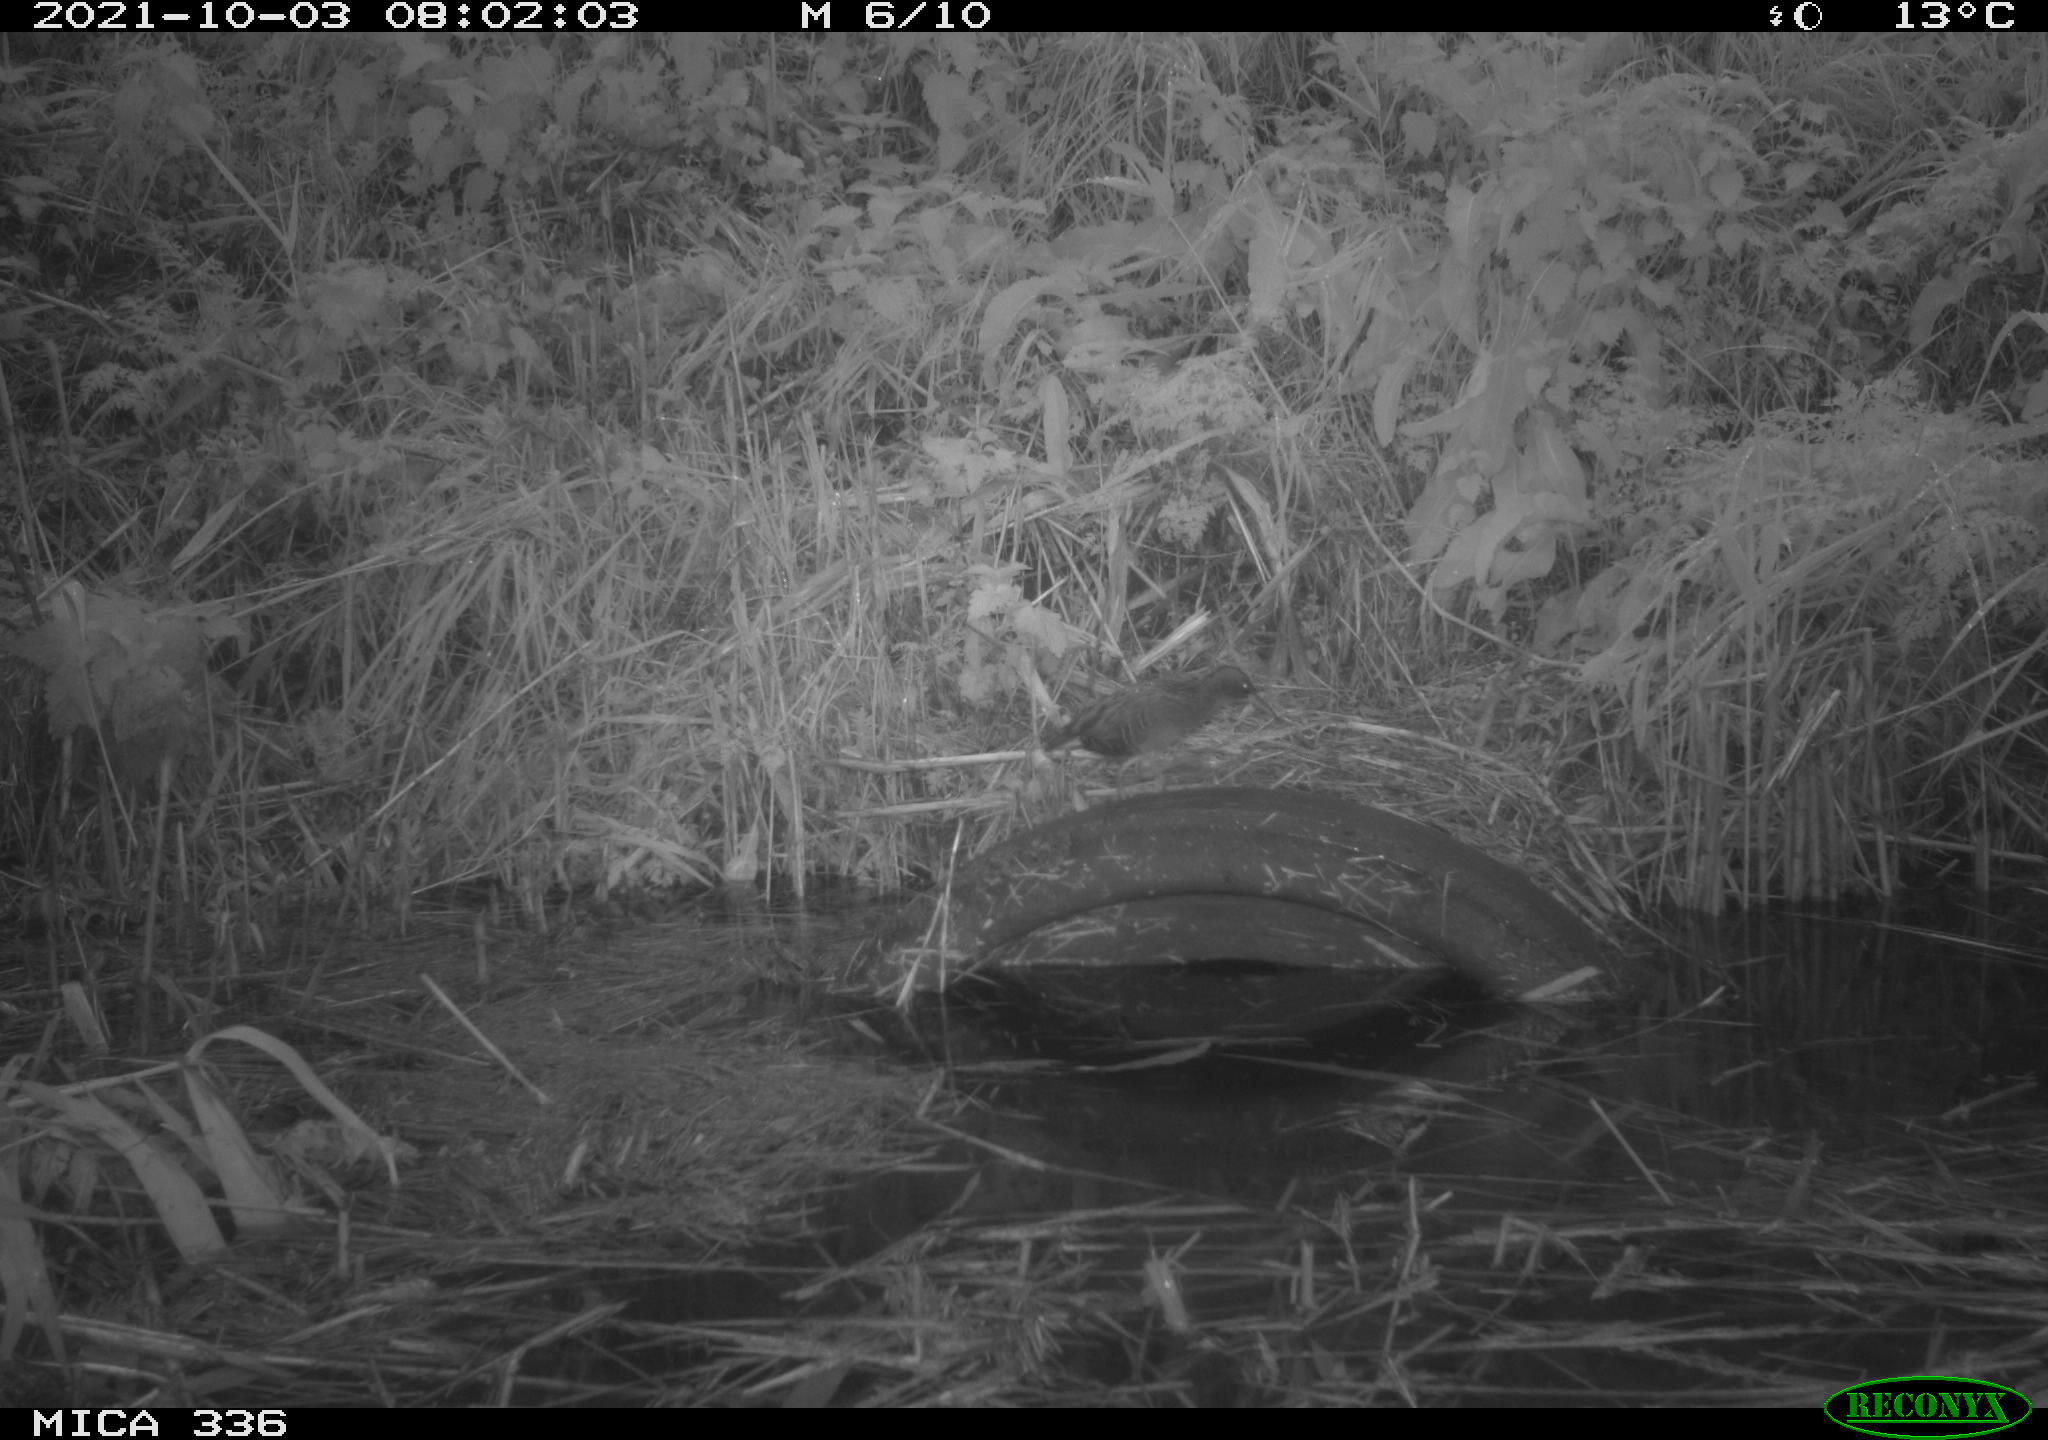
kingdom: Animalia
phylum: Chordata
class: Aves
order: Gruiformes
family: Rallidae
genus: Rallus
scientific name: Rallus aquaticus
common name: Water rail
